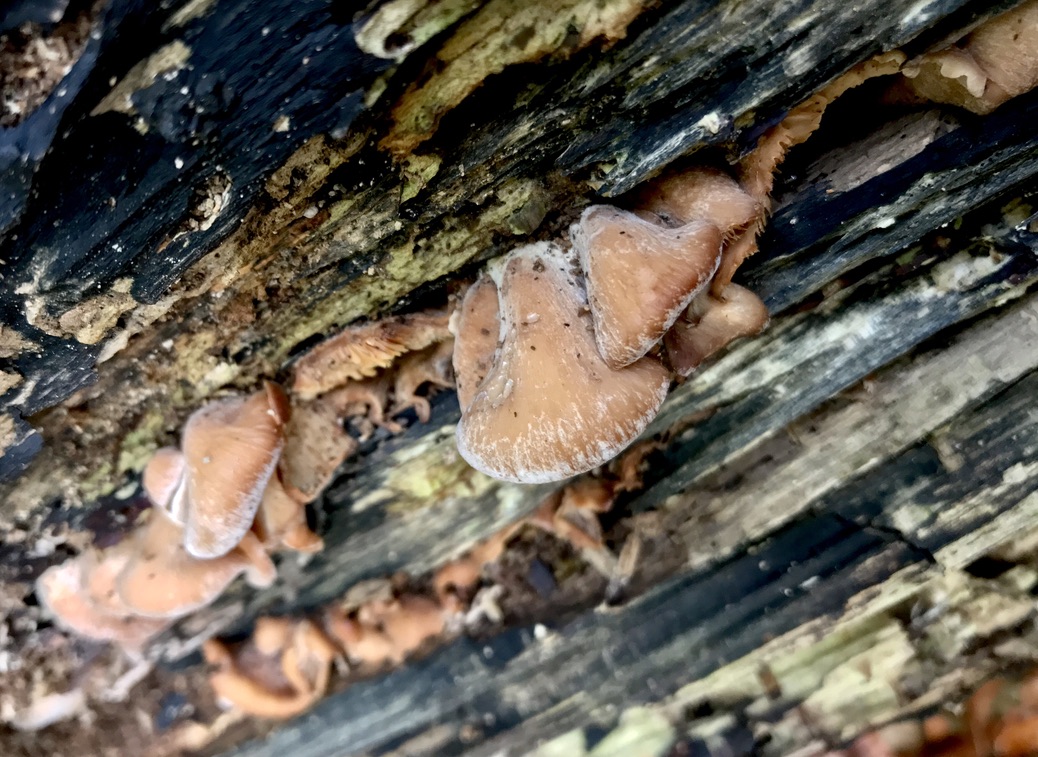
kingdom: Fungi
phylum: Basidiomycota
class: Agaricomycetes
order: Russulales
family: Auriscalpiaceae
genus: Lentinellus
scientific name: Lentinellus ursinus
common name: børstehåret savbladhat
